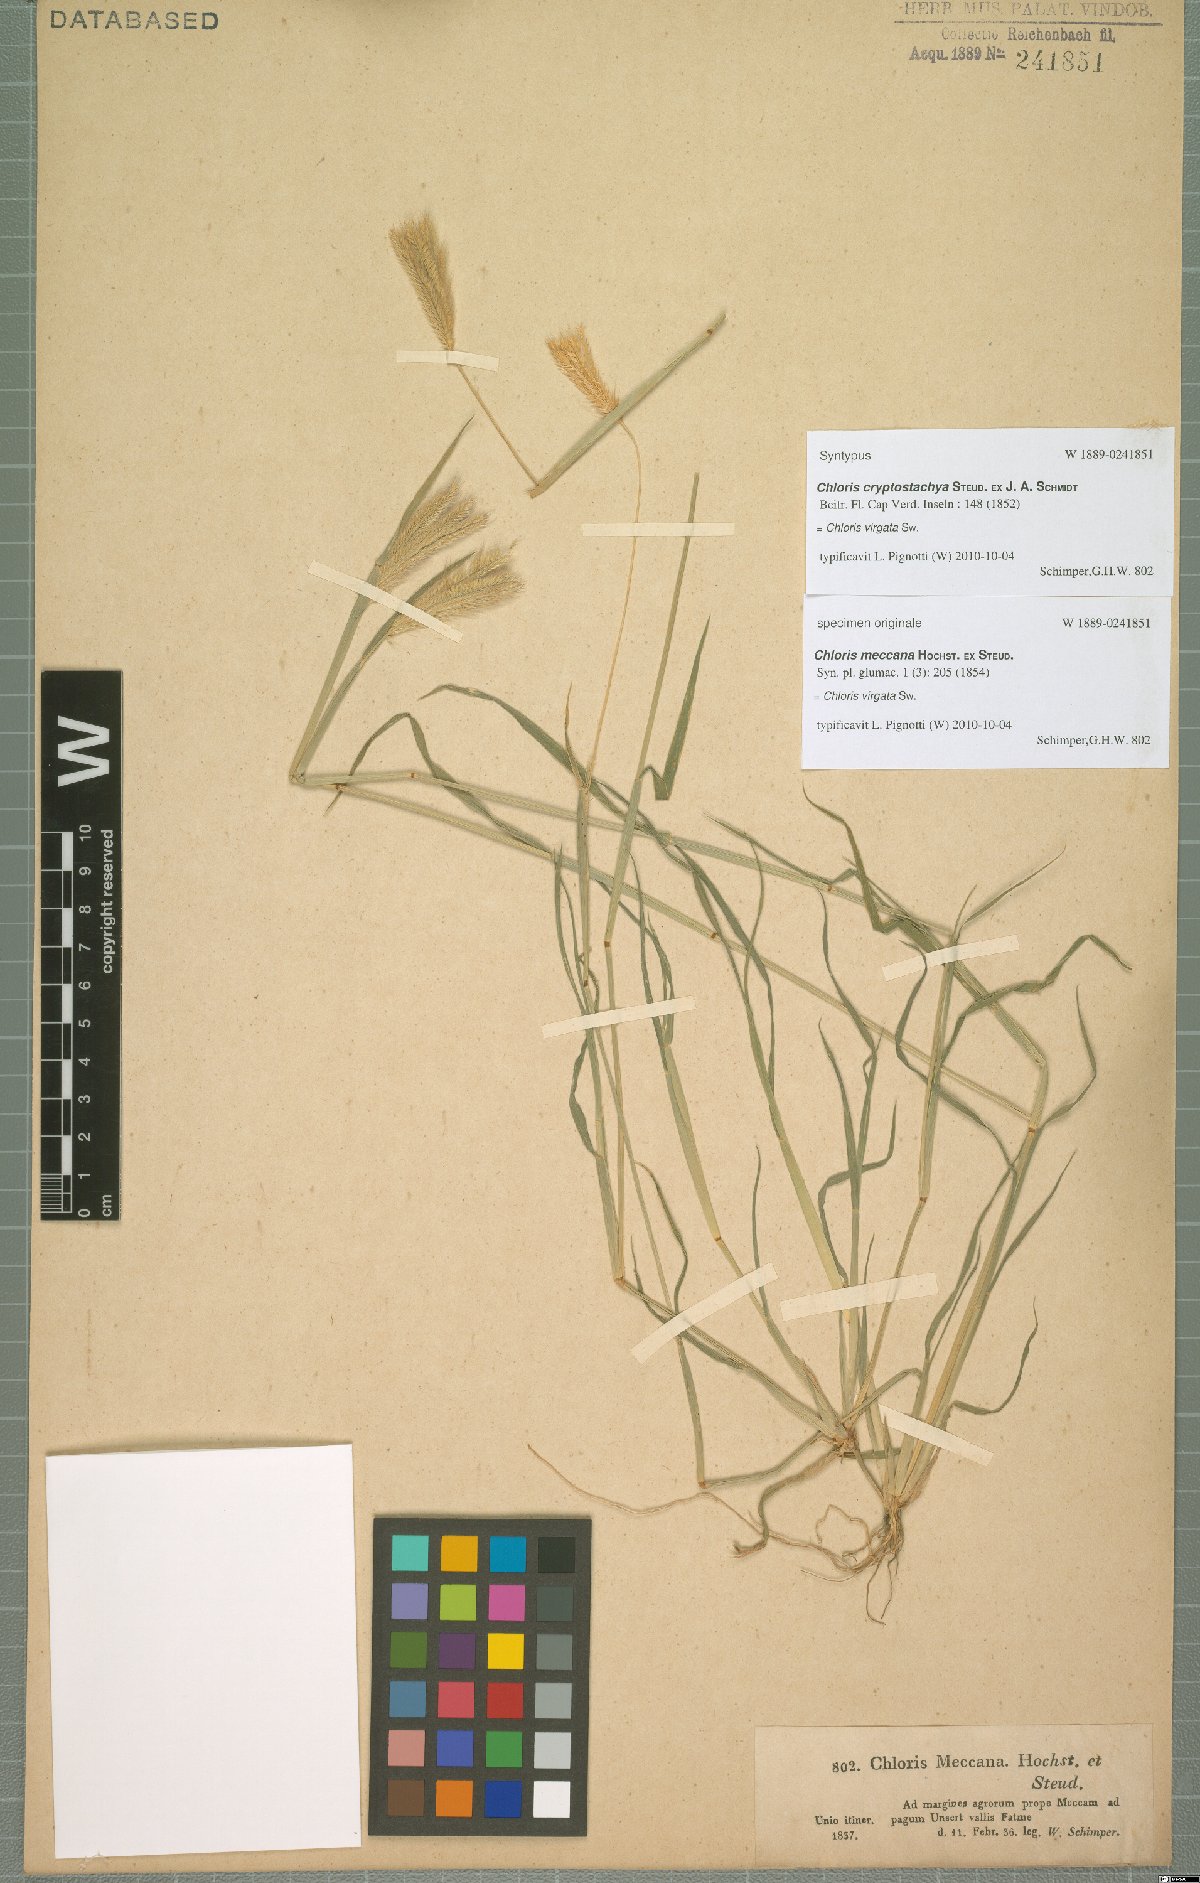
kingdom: Plantae
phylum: Tracheophyta
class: Liliopsida
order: Poales
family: Poaceae
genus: Chloris
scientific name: Chloris virgata
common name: Feathery rhodes-grass
